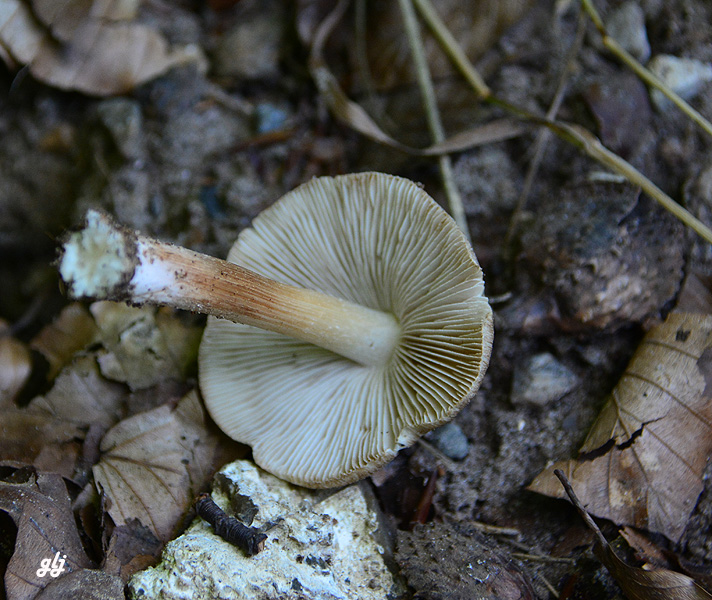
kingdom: Fungi
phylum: Basidiomycota
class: Agaricomycetes
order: Agaricales
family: Inocybaceae
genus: Inosperma
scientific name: Inosperma
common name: Trævlhat
